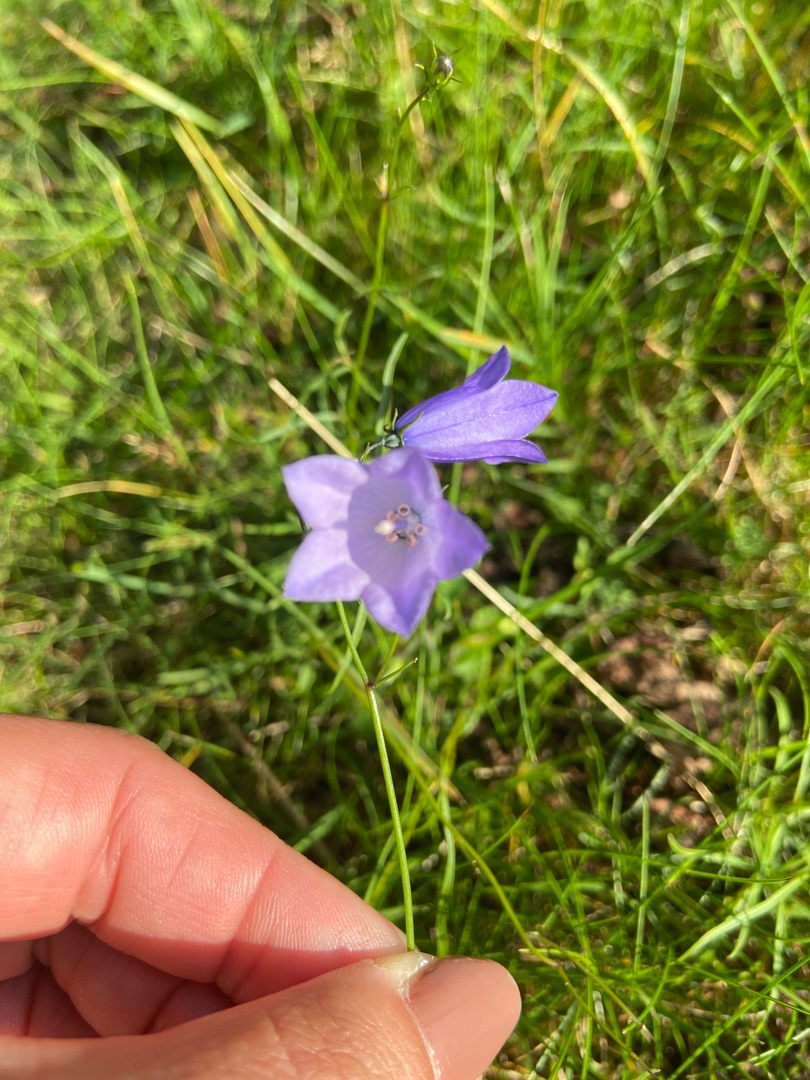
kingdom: Plantae
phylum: Tracheophyta
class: Magnoliopsida
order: Asterales
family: Campanulaceae
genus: Campanula
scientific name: Campanula rotundifolia
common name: Liden klokke
